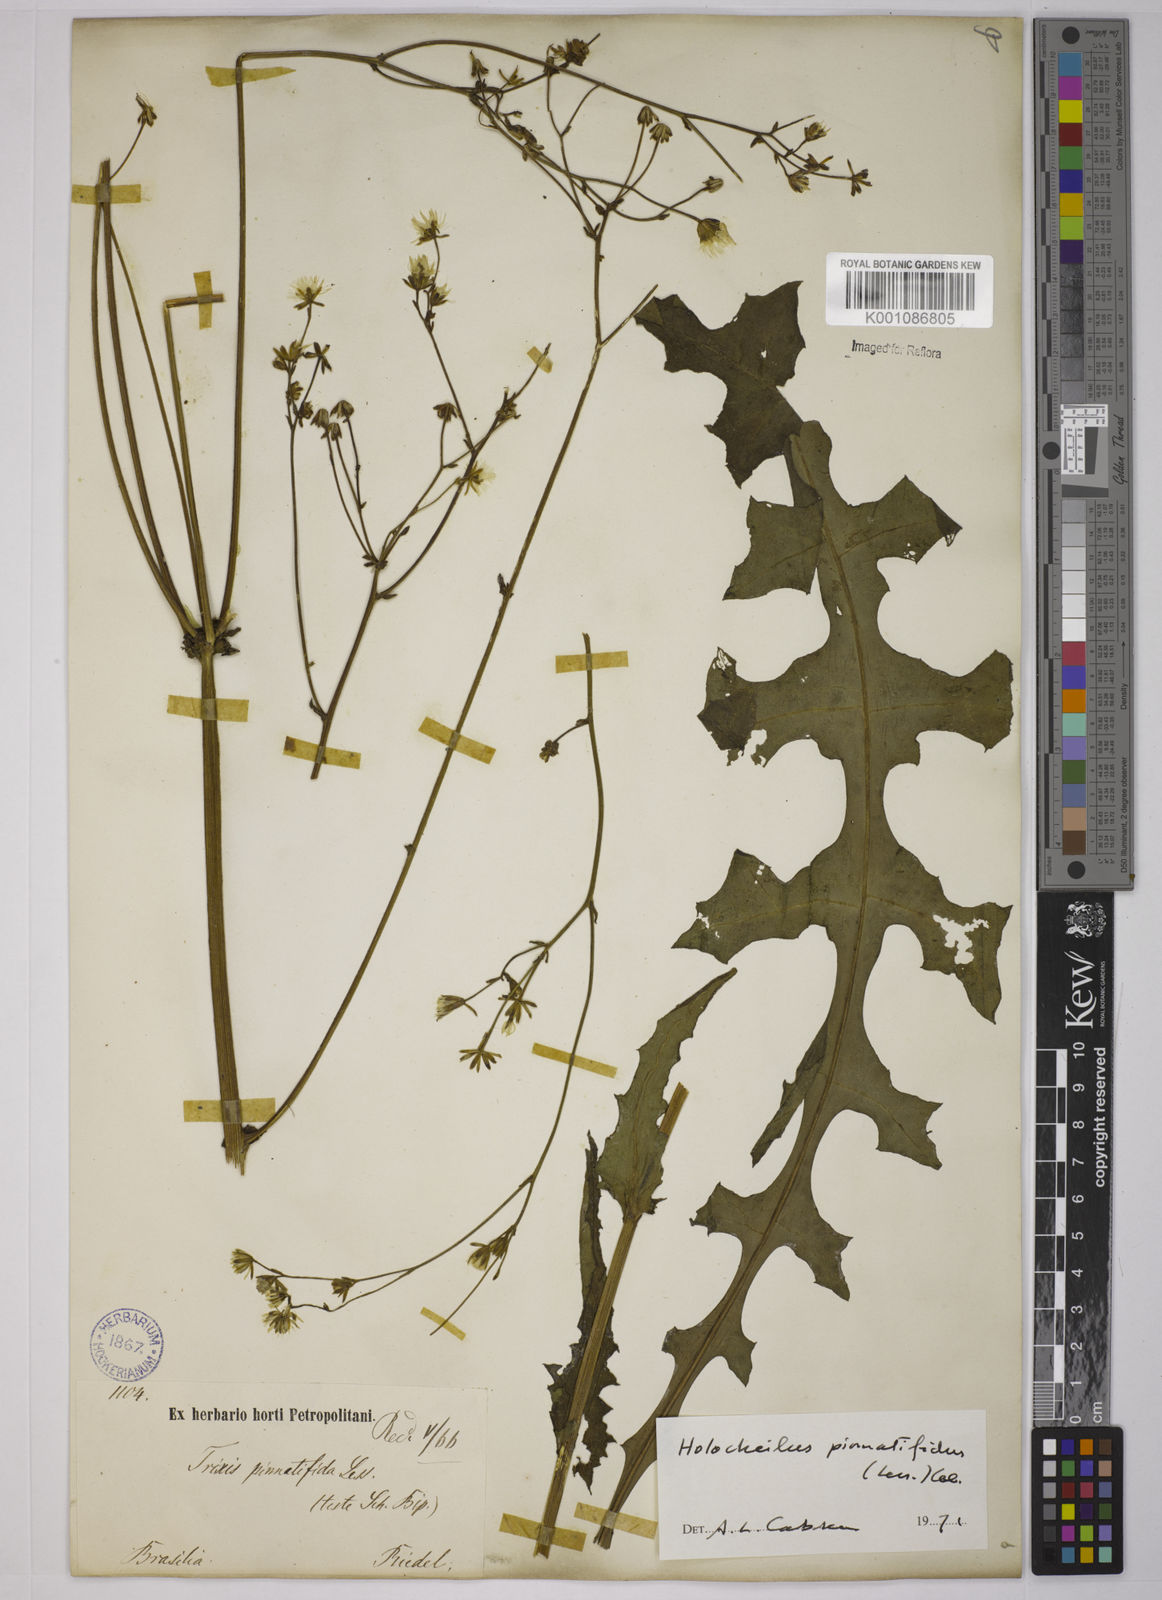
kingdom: Plantae
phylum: Tracheophyta
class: Magnoliopsida
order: Asterales
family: Asteraceae
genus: Holocheilus
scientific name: Holocheilus pinnatifidus
